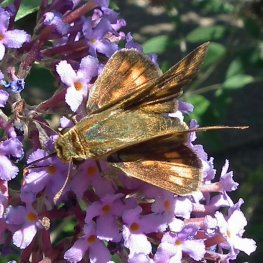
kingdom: Animalia
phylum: Arthropoda
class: Insecta
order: Lepidoptera
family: Hesperiidae
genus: Hylephila
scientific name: Hylephila phyleus
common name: Fiery Skipper
